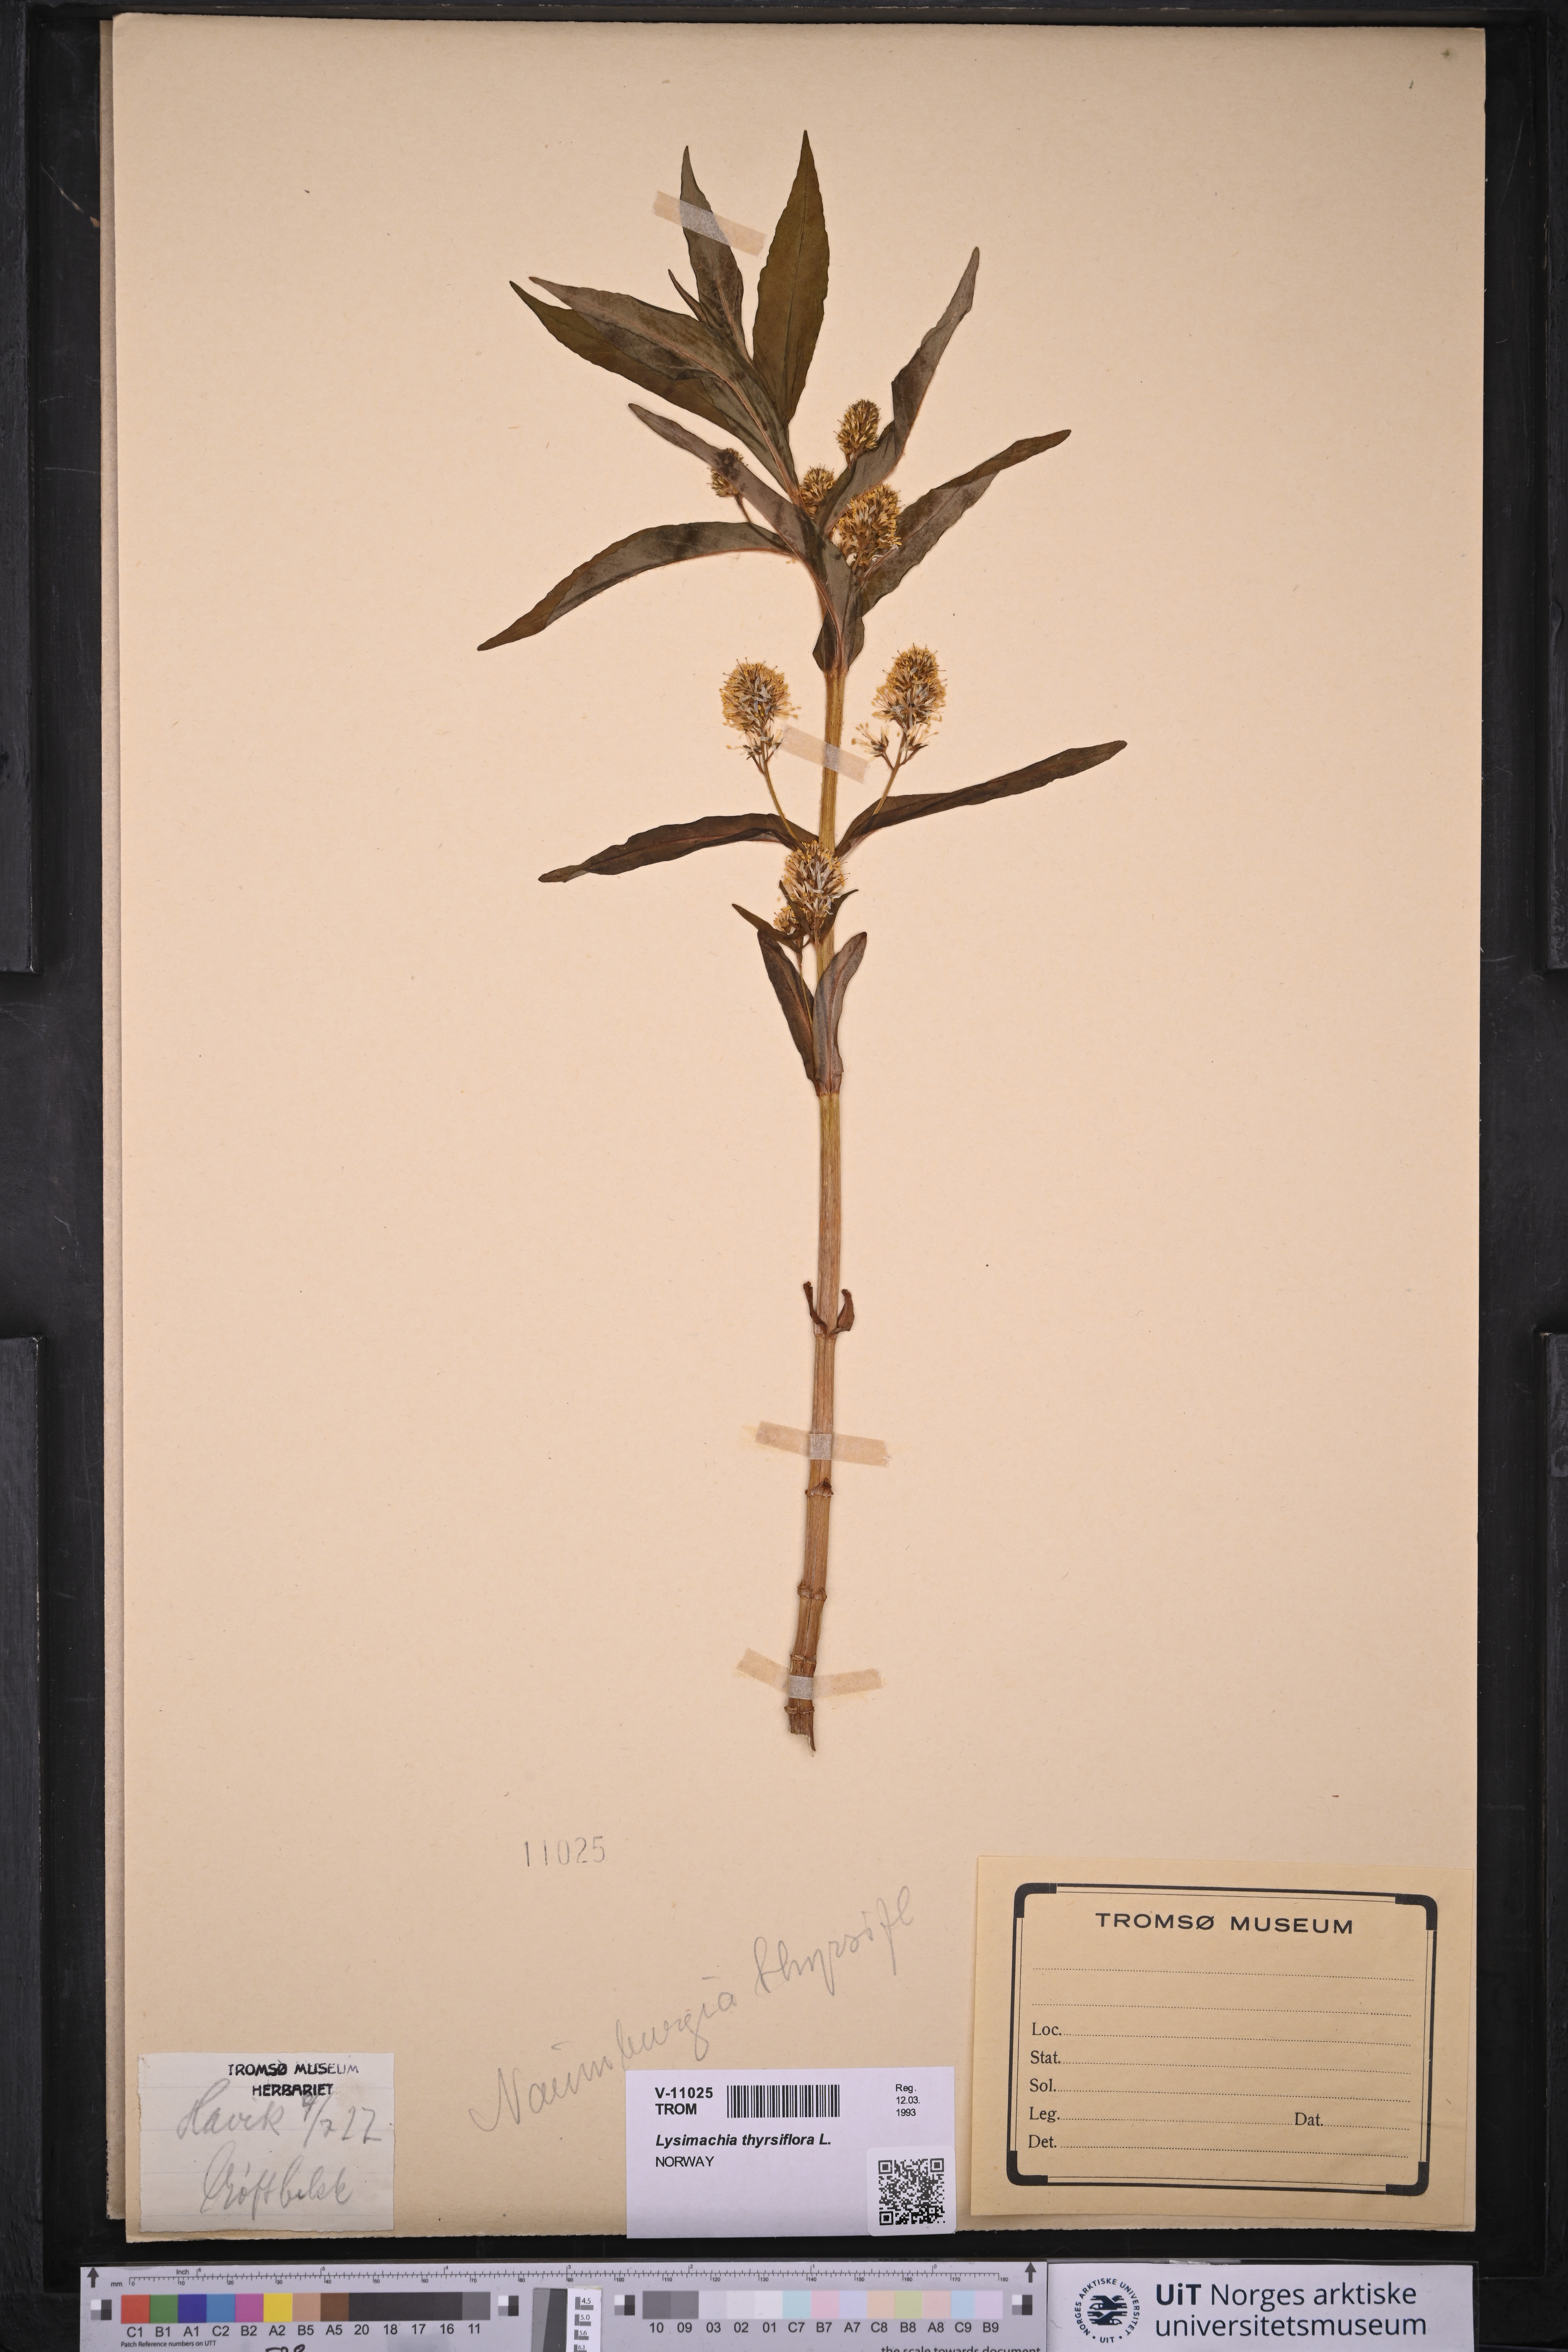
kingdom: Plantae
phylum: Tracheophyta
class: Magnoliopsida
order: Ericales
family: Primulaceae
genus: Lysimachia
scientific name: Lysimachia thyrsiflora
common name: Tufted loosestrife
